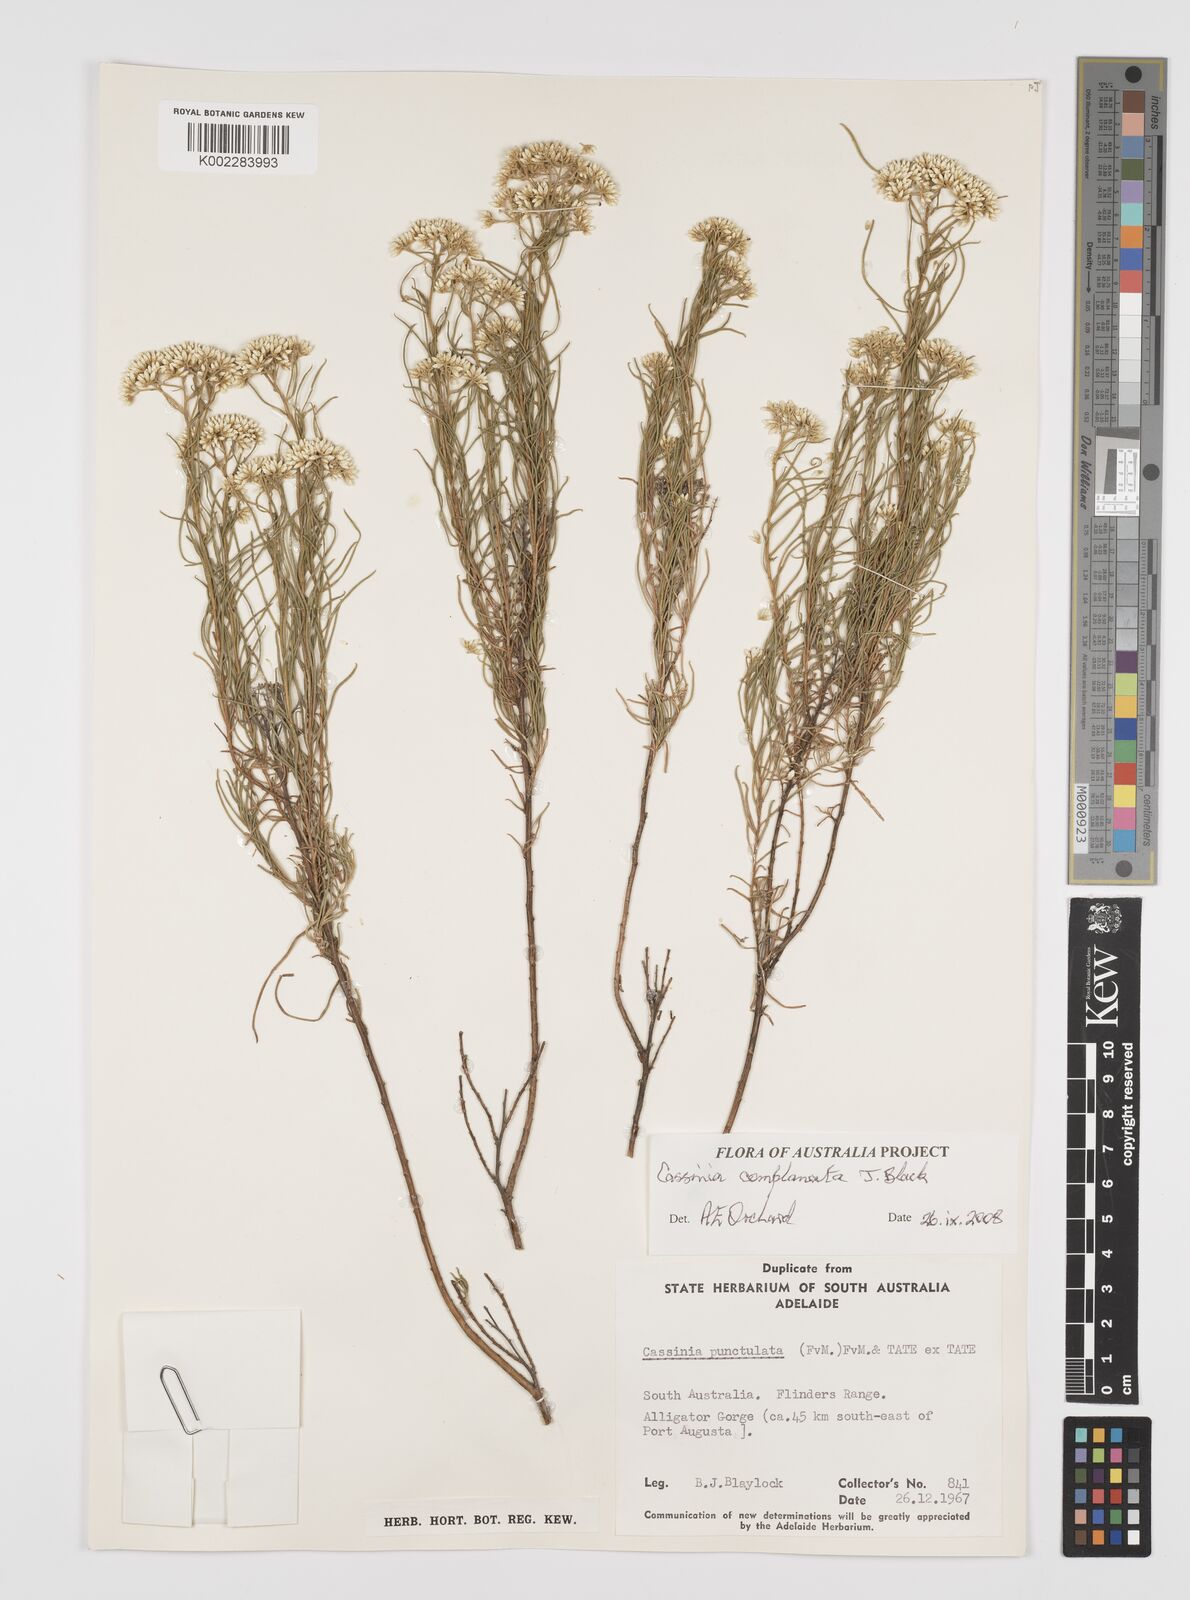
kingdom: Plantae
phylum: Tracheophyta
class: Magnoliopsida
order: Asterales
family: Asteraceae
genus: Cassinia
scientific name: Cassinia complanata
